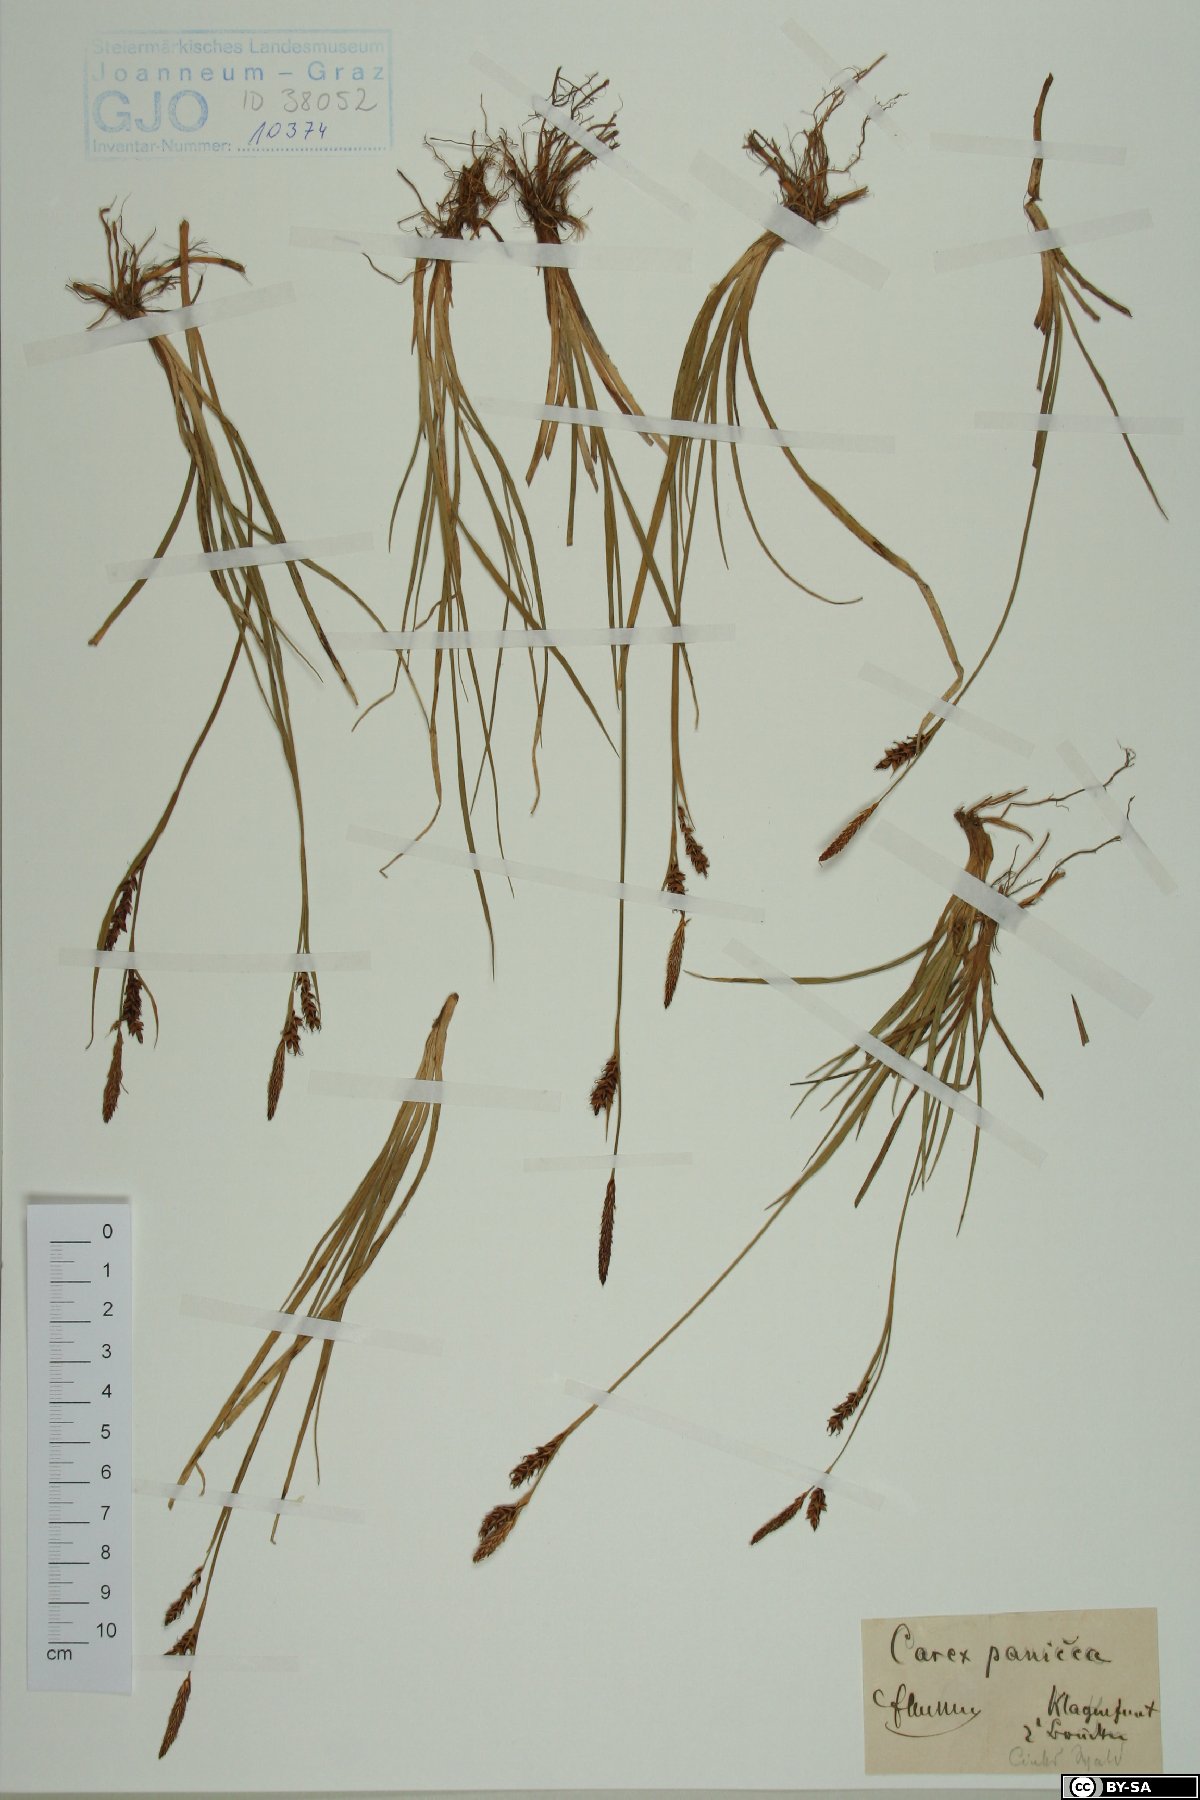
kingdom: Plantae
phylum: Tracheophyta
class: Liliopsida
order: Poales
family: Cyperaceae
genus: Carex
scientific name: Carex panicea
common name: Carnation sedge
